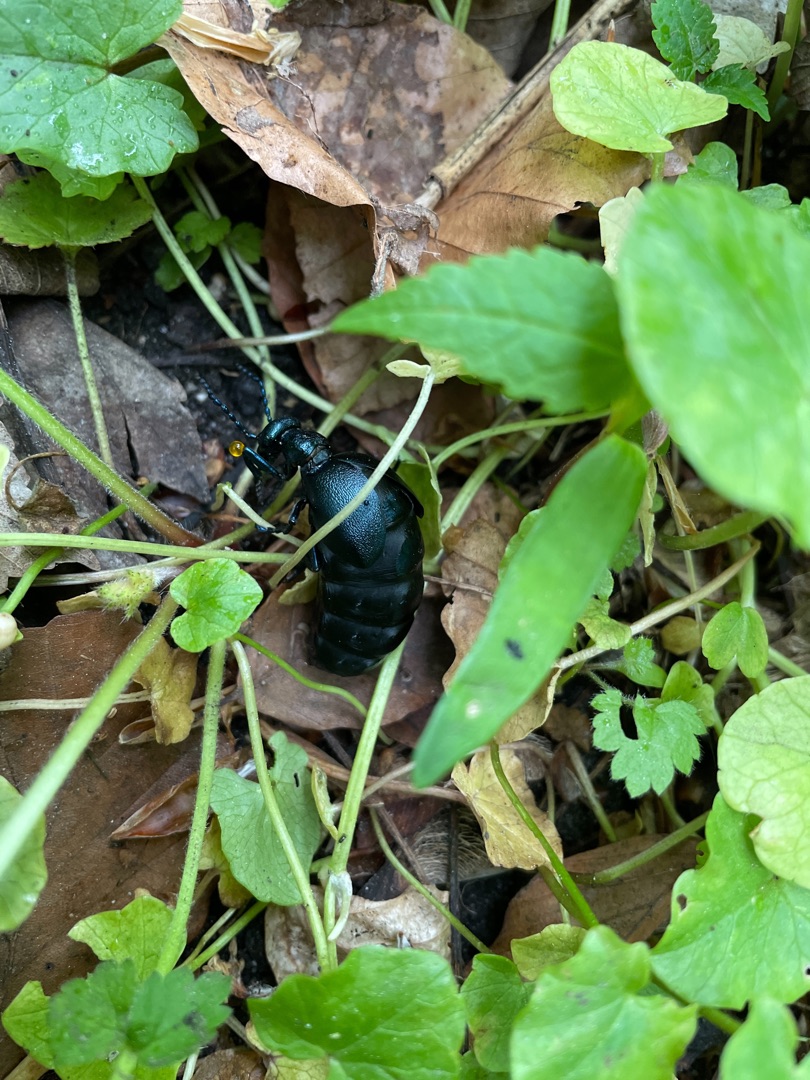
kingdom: Animalia
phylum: Arthropoda
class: Insecta
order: Coleoptera
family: Meloidae
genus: Meloe
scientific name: Meloe violaceus
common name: Blå oliebille
